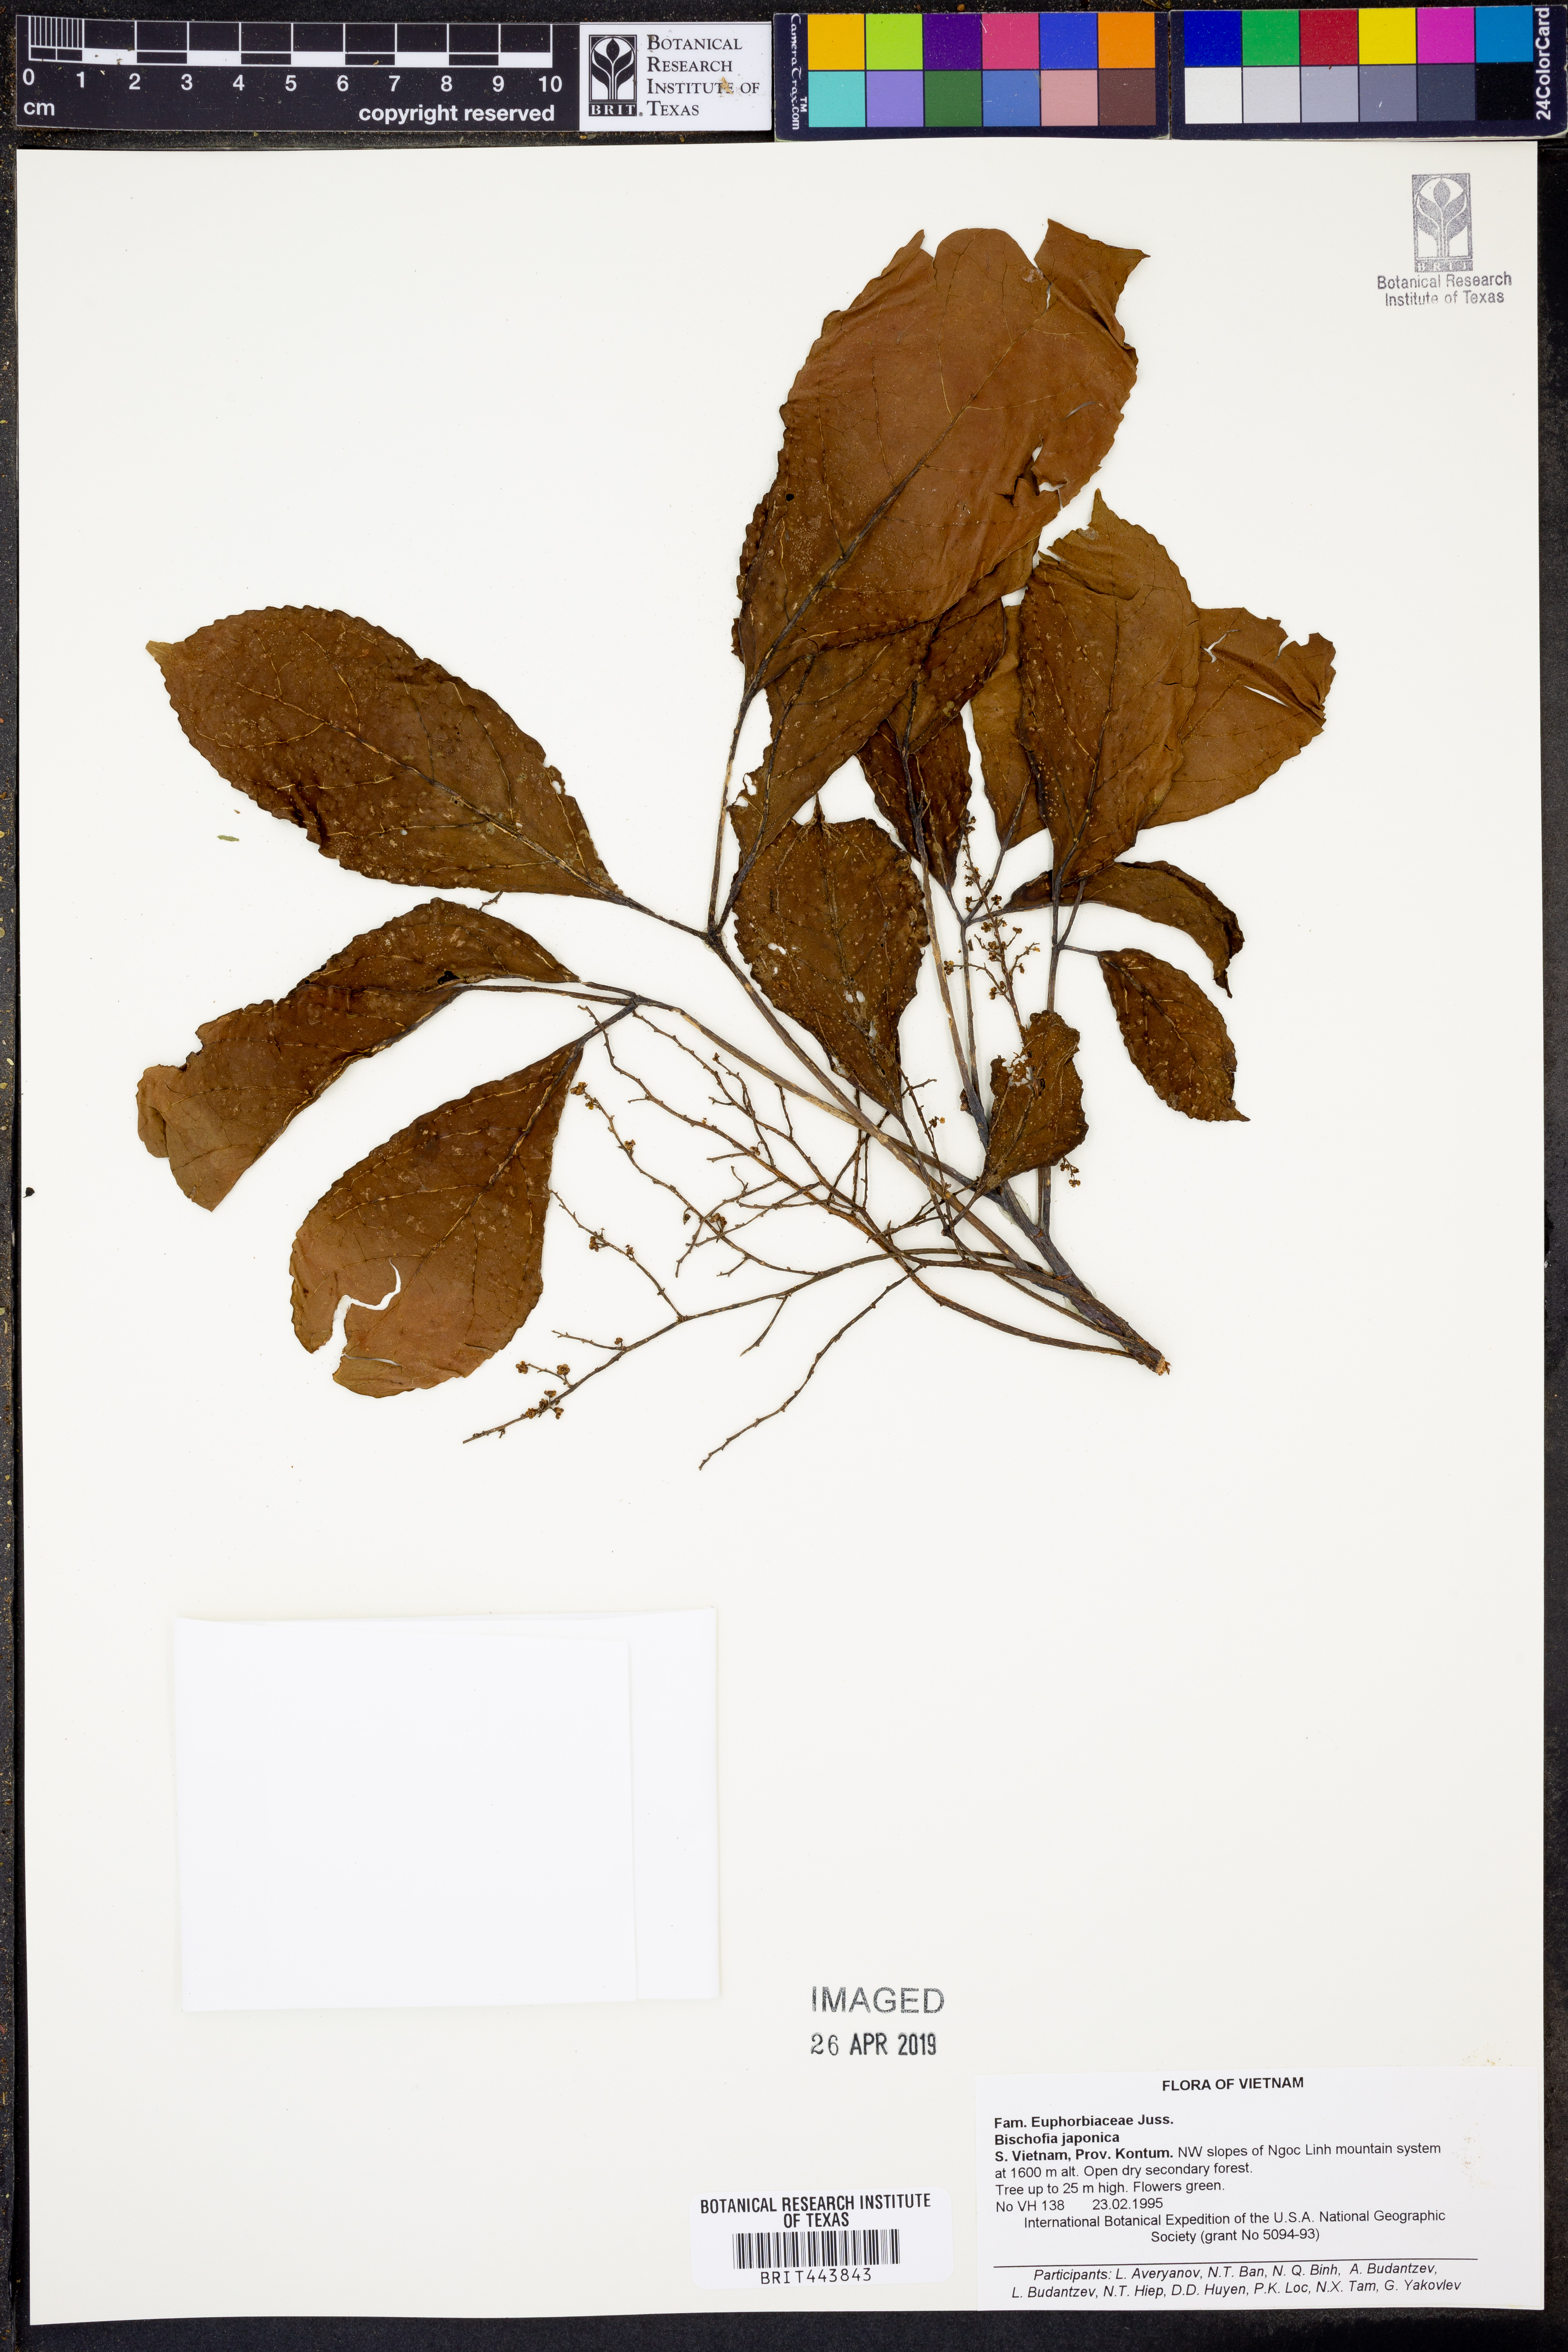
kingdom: Plantae
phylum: Tracheophyta
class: Magnoliopsida
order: Malpighiales
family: Phyllanthaceae
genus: Bischofia
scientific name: Bischofia javanica
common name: Javanese bishopwood
